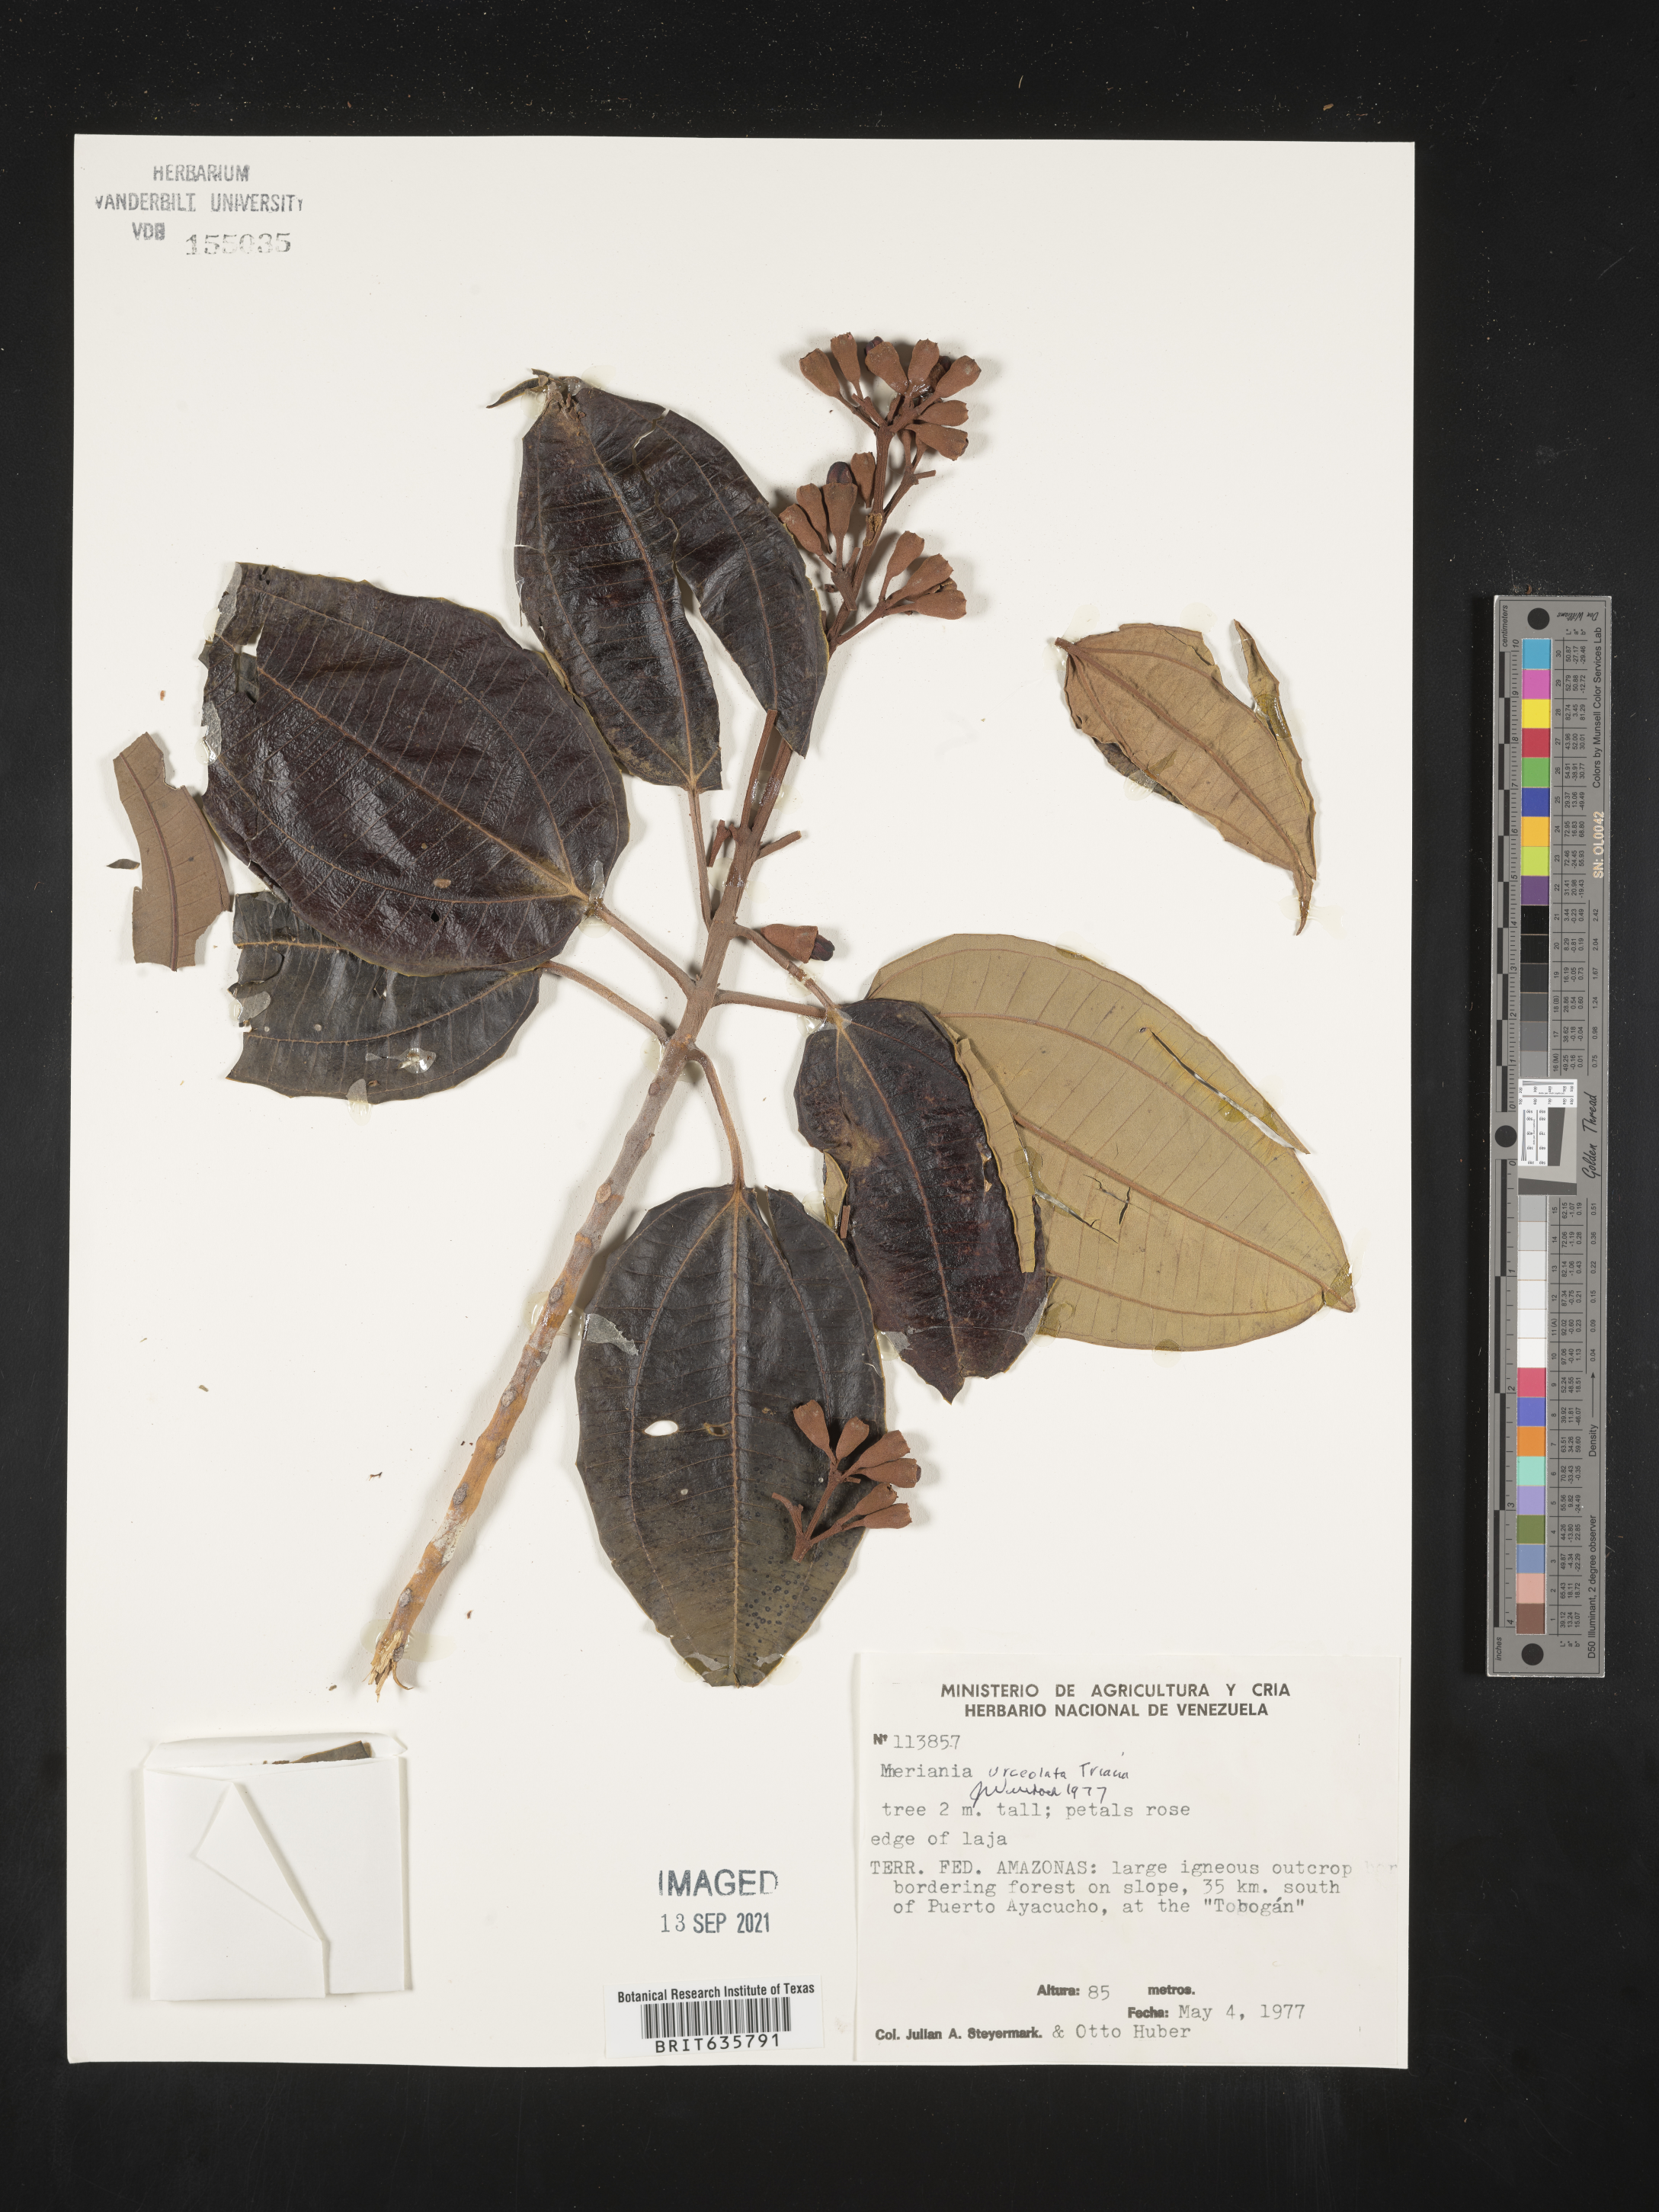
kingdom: Plantae
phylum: Tracheophyta
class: Magnoliopsida
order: Myrtales
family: Melastomataceae
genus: Meriania
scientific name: Meriania
